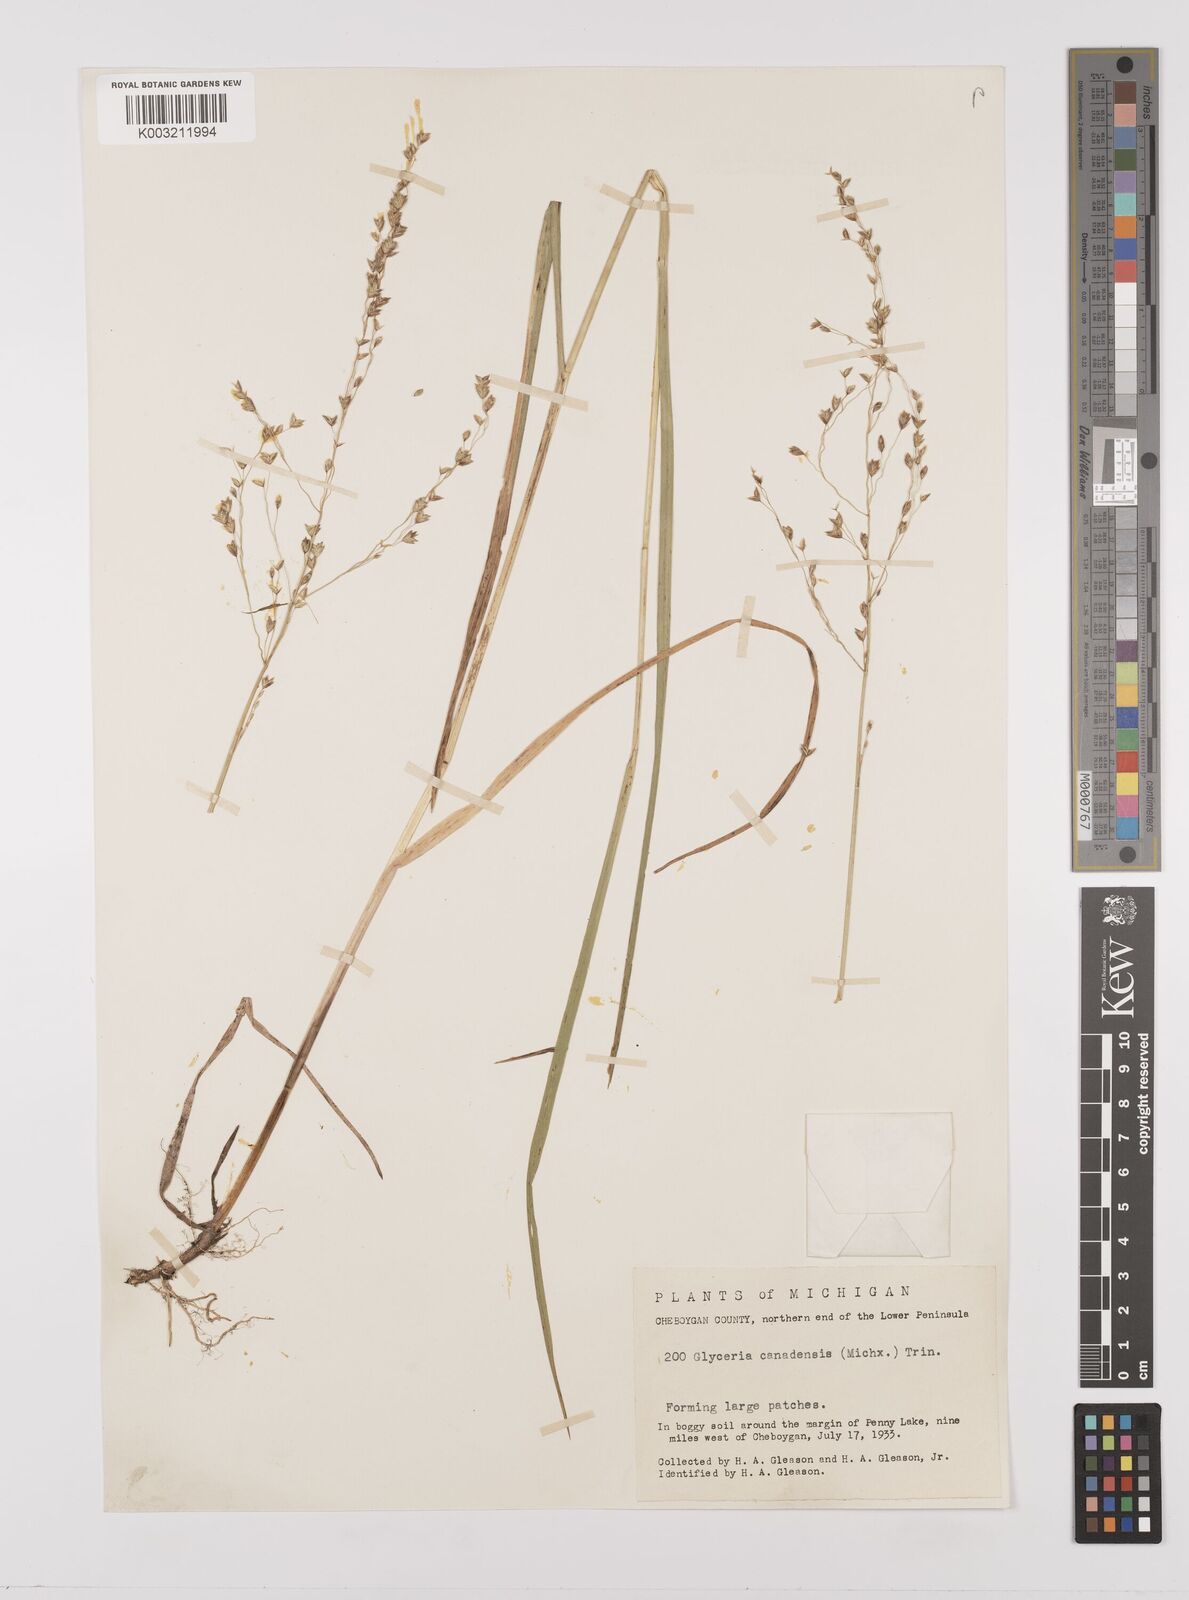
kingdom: Plantae
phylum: Tracheophyta
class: Liliopsida
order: Poales
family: Poaceae
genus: Glyceria
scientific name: Glyceria canadensis
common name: Canada mannagrass
